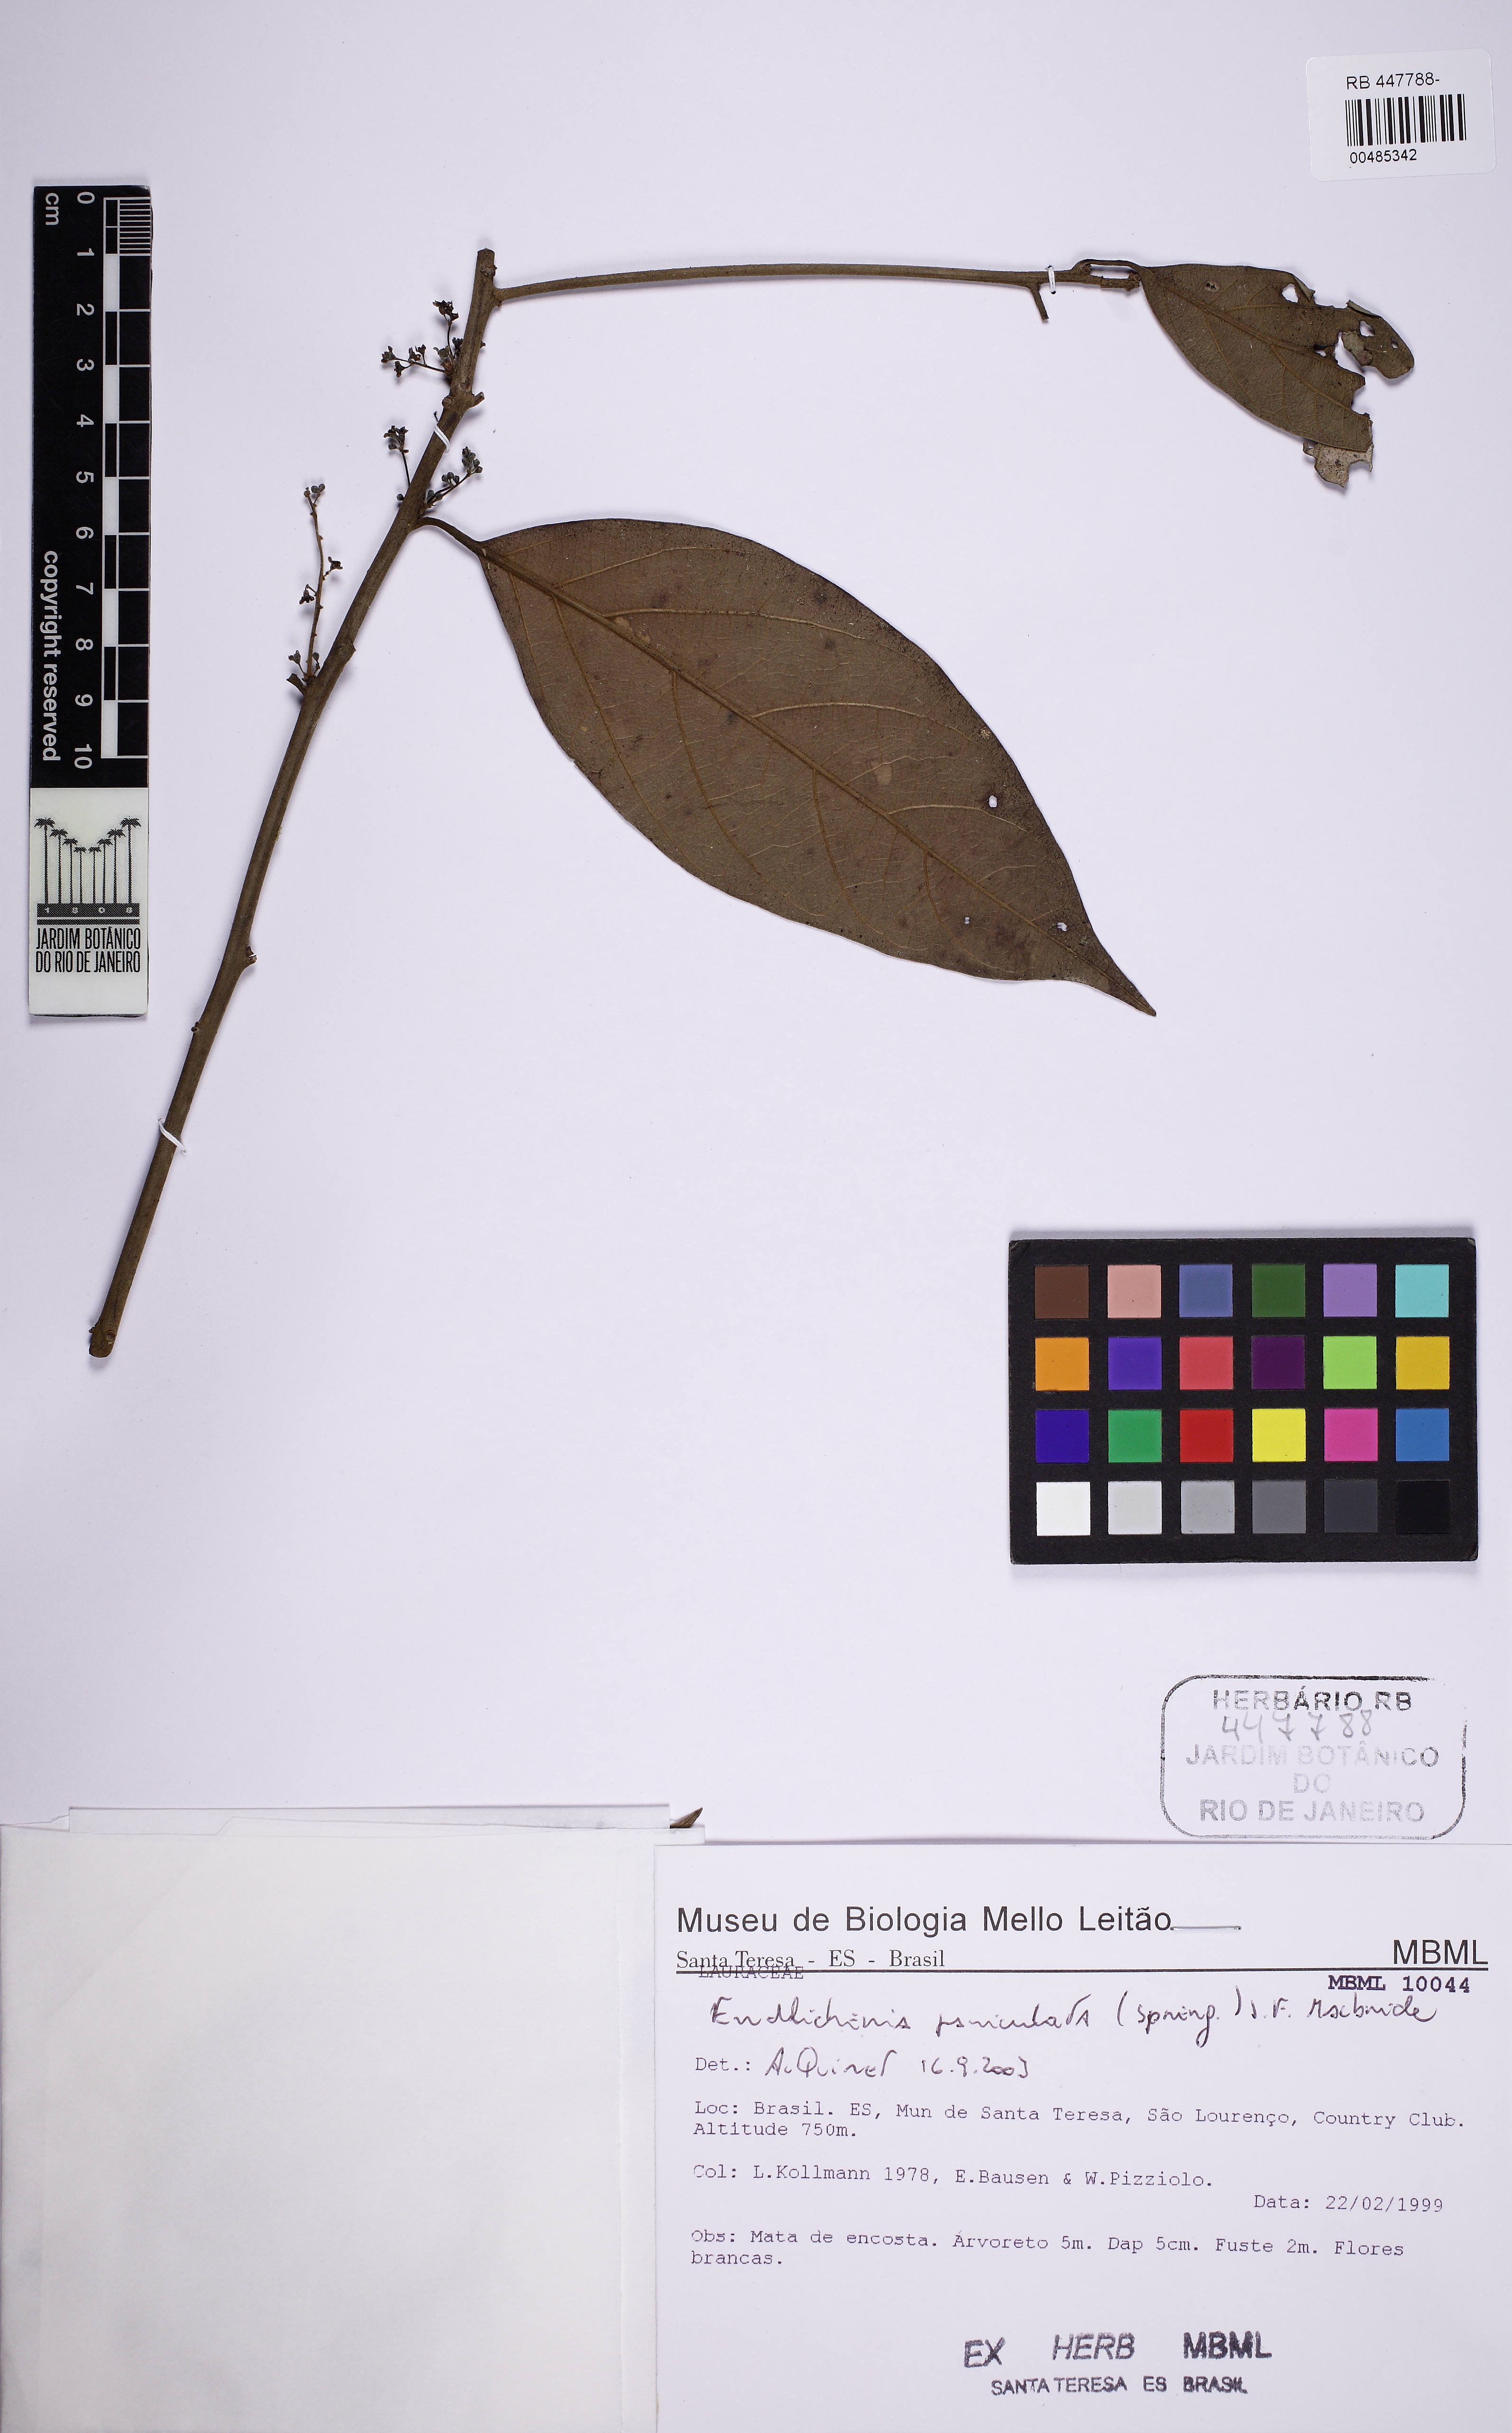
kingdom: Plantae
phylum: Tracheophyta
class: Magnoliopsida
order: Laurales
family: Lauraceae
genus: Endlicheria
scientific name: Endlicheria paniculata
